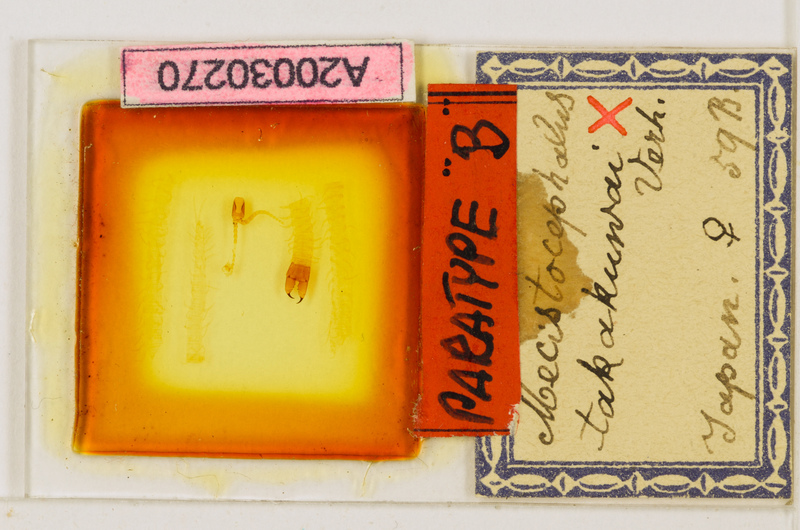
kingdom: Animalia
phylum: Arthropoda
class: Chilopoda
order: Geophilomorpha
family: Mecistocephalidae
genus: Mecistocephalus
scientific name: Mecistocephalus takakuwai
